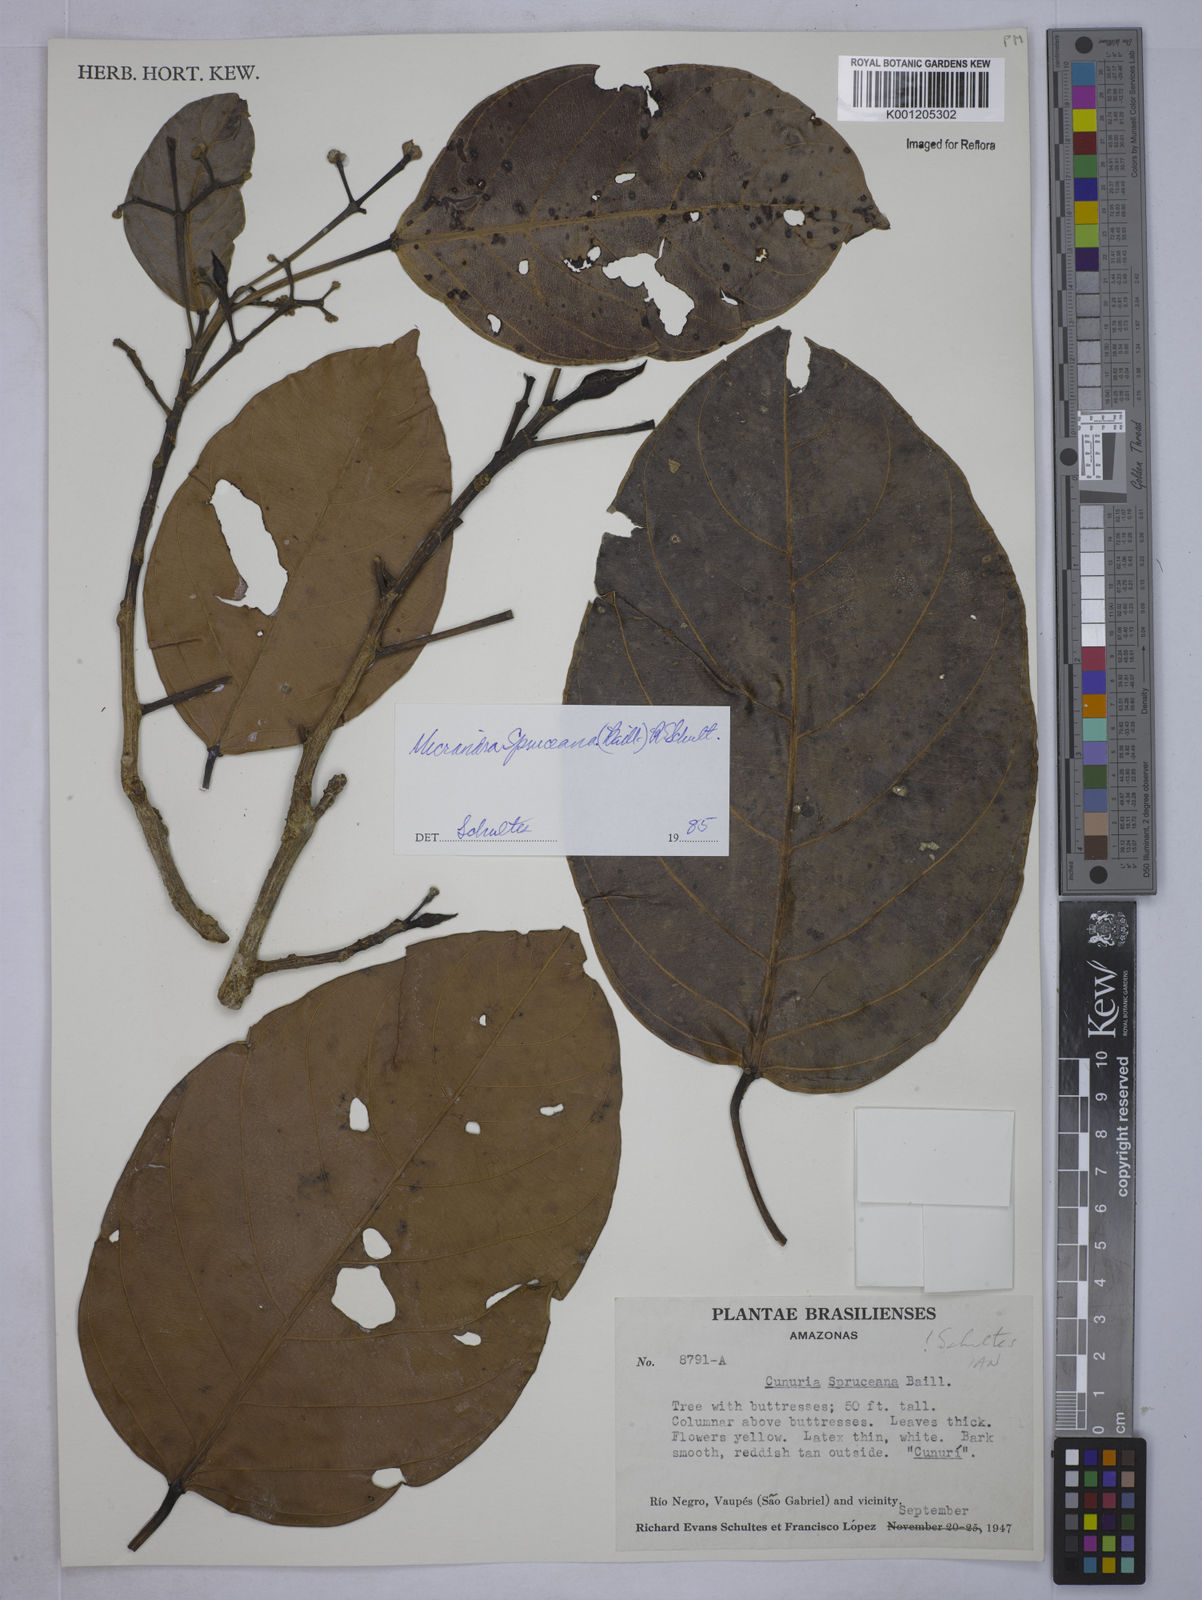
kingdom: Plantae
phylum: Tracheophyta
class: Magnoliopsida
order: Malpighiales
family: Euphorbiaceae
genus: Micrandra
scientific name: Micrandra spruceana
